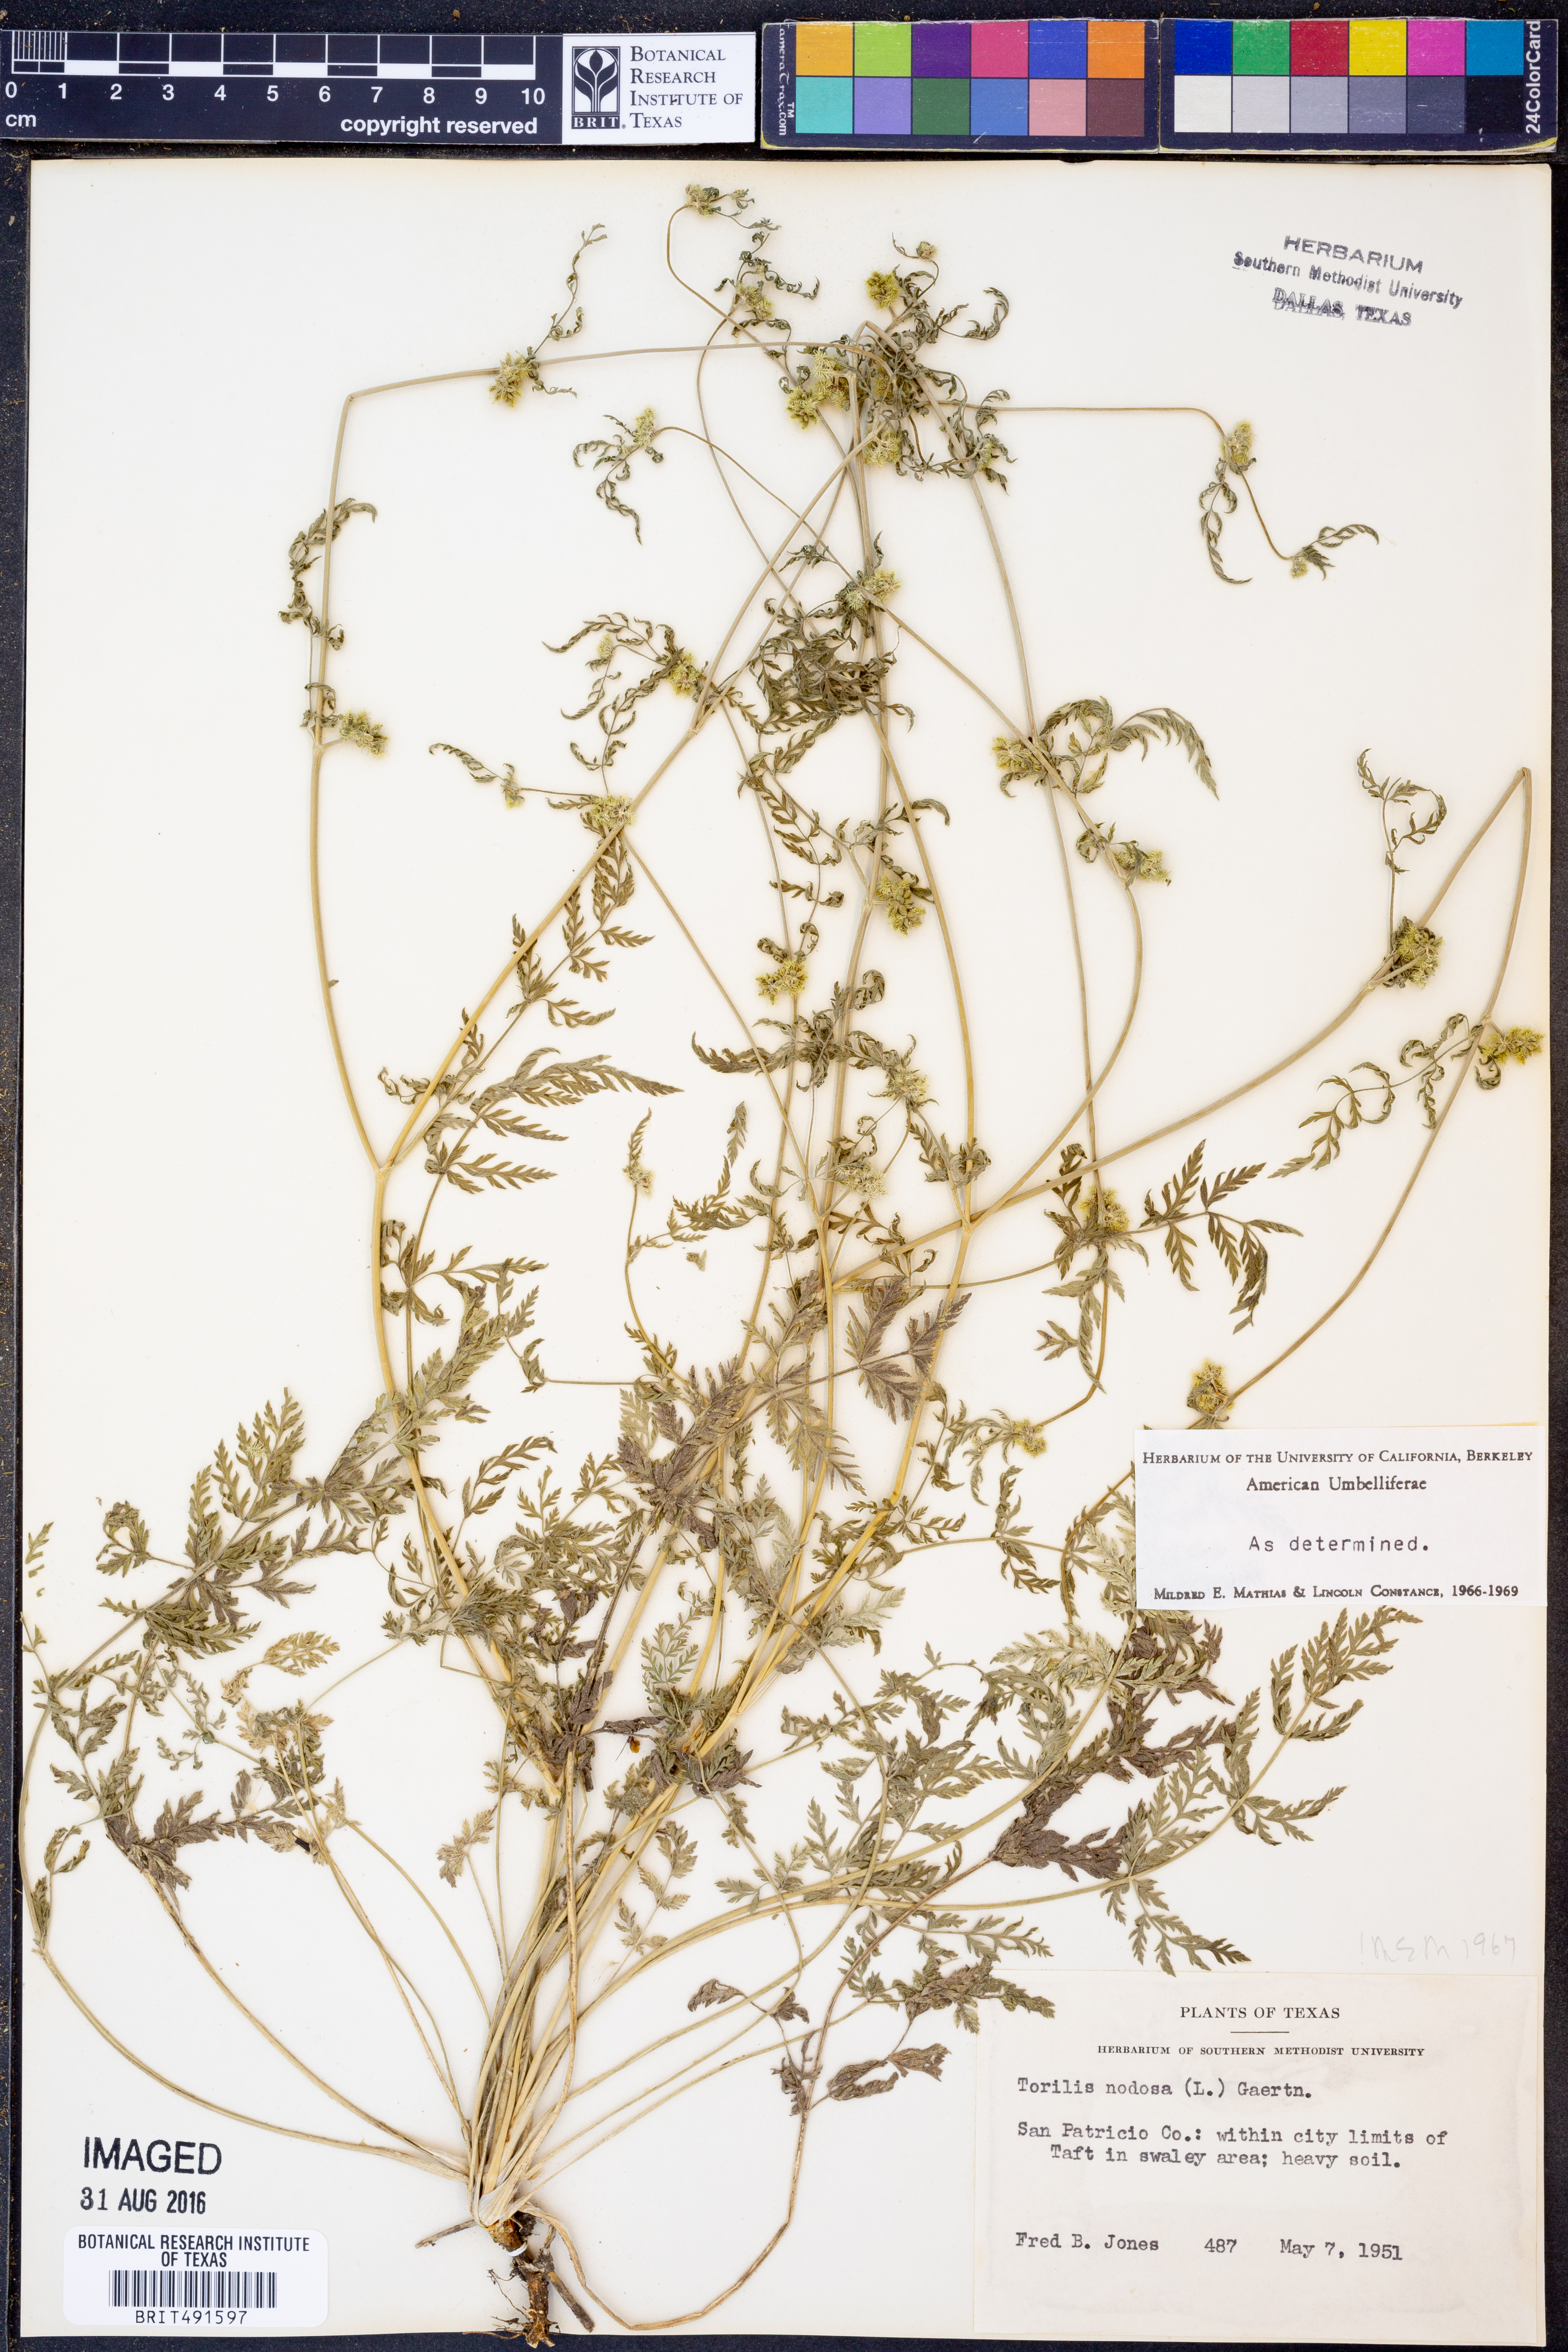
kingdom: Plantae
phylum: Tracheophyta
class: Magnoliopsida
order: Apiales
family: Apiaceae
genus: Torilis
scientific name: Torilis nodosa
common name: Knotted hedge-parsley
